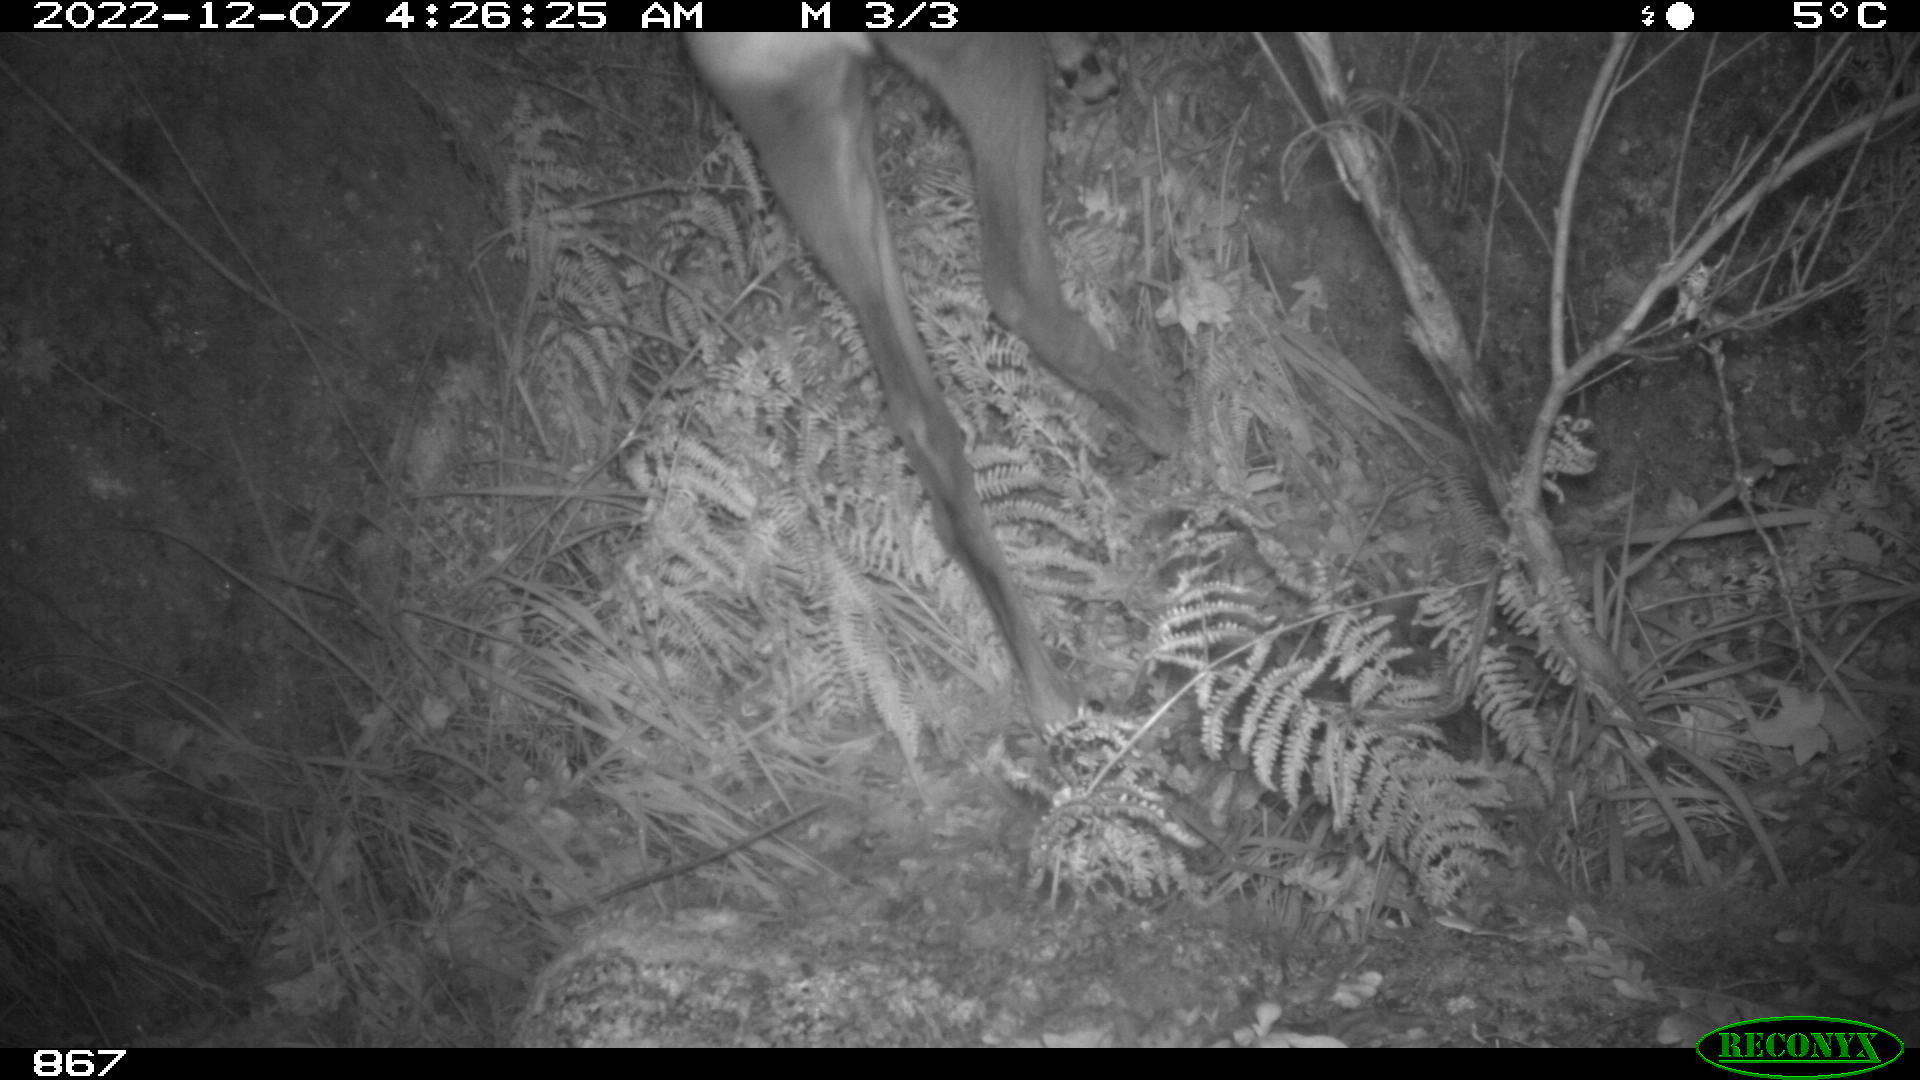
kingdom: Animalia
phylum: Chordata
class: Mammalia
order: Artiodactyla
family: Cervidae
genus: Capreolus
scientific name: Capreolus capreolus
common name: Western roe deer
